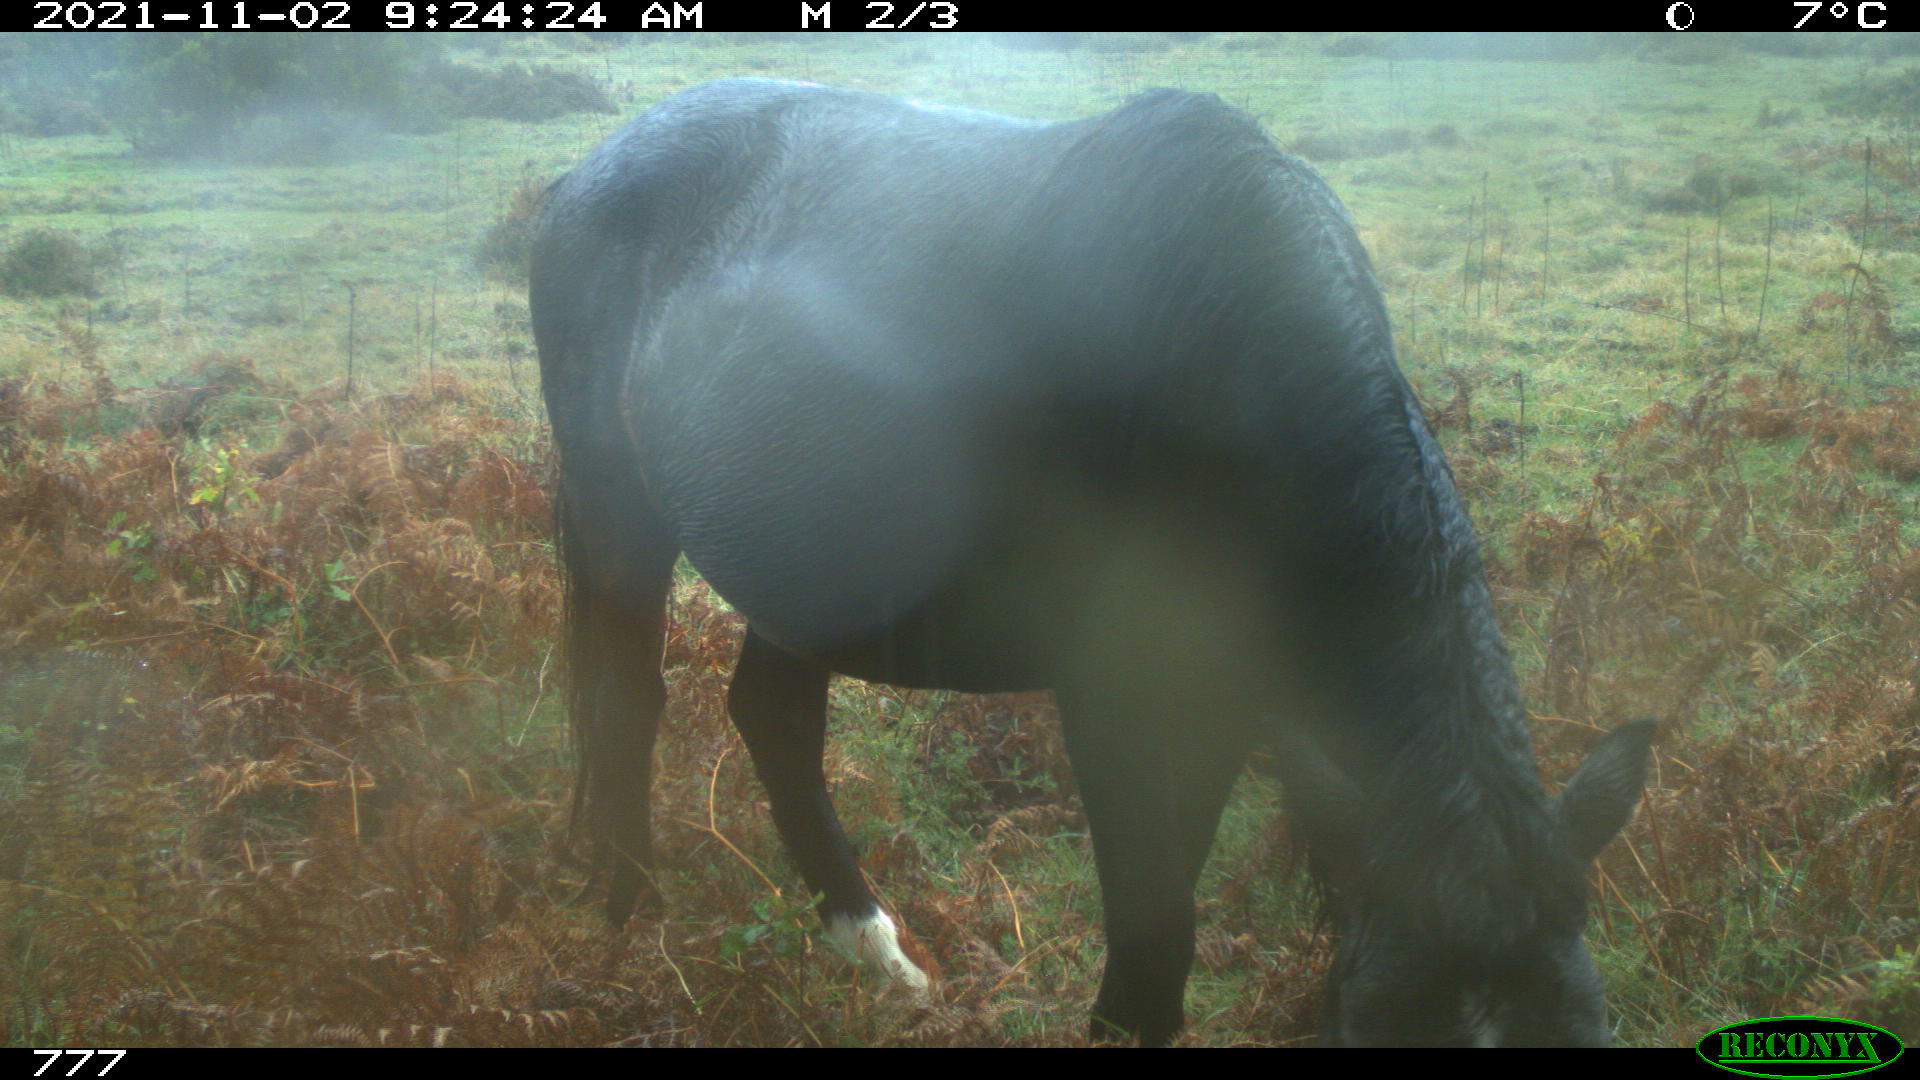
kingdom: Animalia
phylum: Chordata
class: Mammalia
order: Perissodactyla
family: Equidae
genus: Equus
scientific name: Equus caballus
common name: Horse
